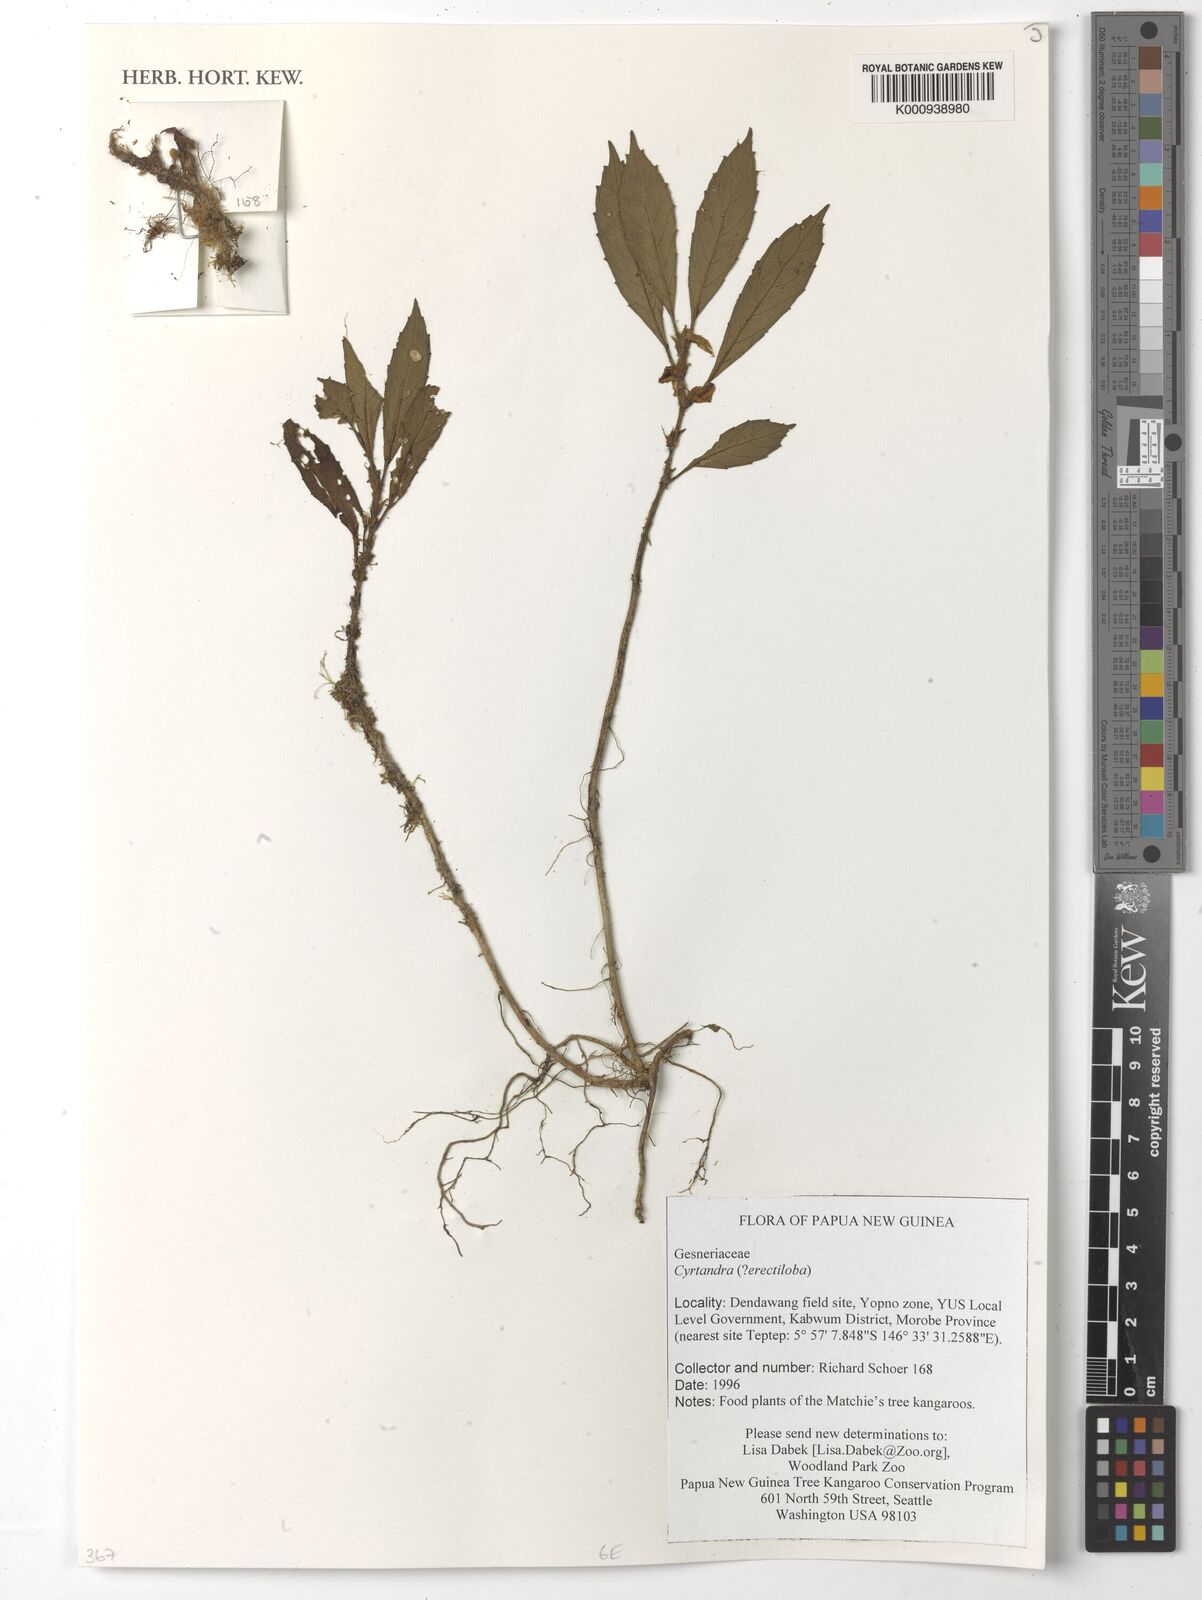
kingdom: Plantae
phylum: Tracheophyta
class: Magnoliopsida
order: Lamiales
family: Gesneriaceae
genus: Cyrtandra
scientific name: Cyrtandra erectiloba
